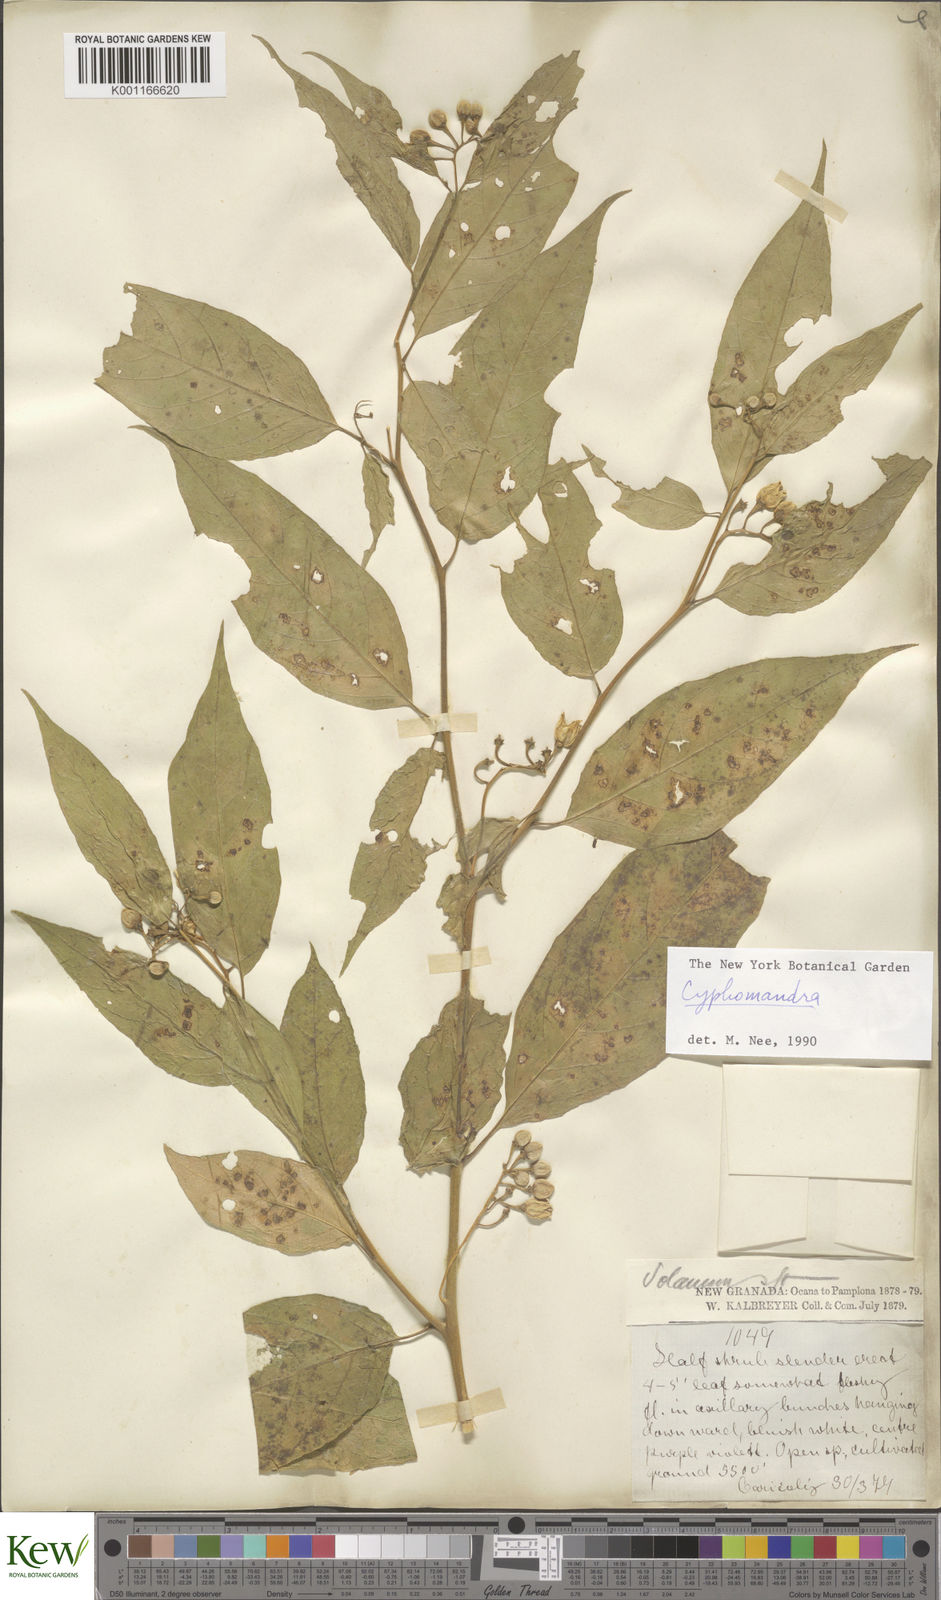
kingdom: Plantae
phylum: Tracheophyta
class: Magnoliopsida
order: Solanales
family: Solanaceae
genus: Solanum
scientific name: Solanum
